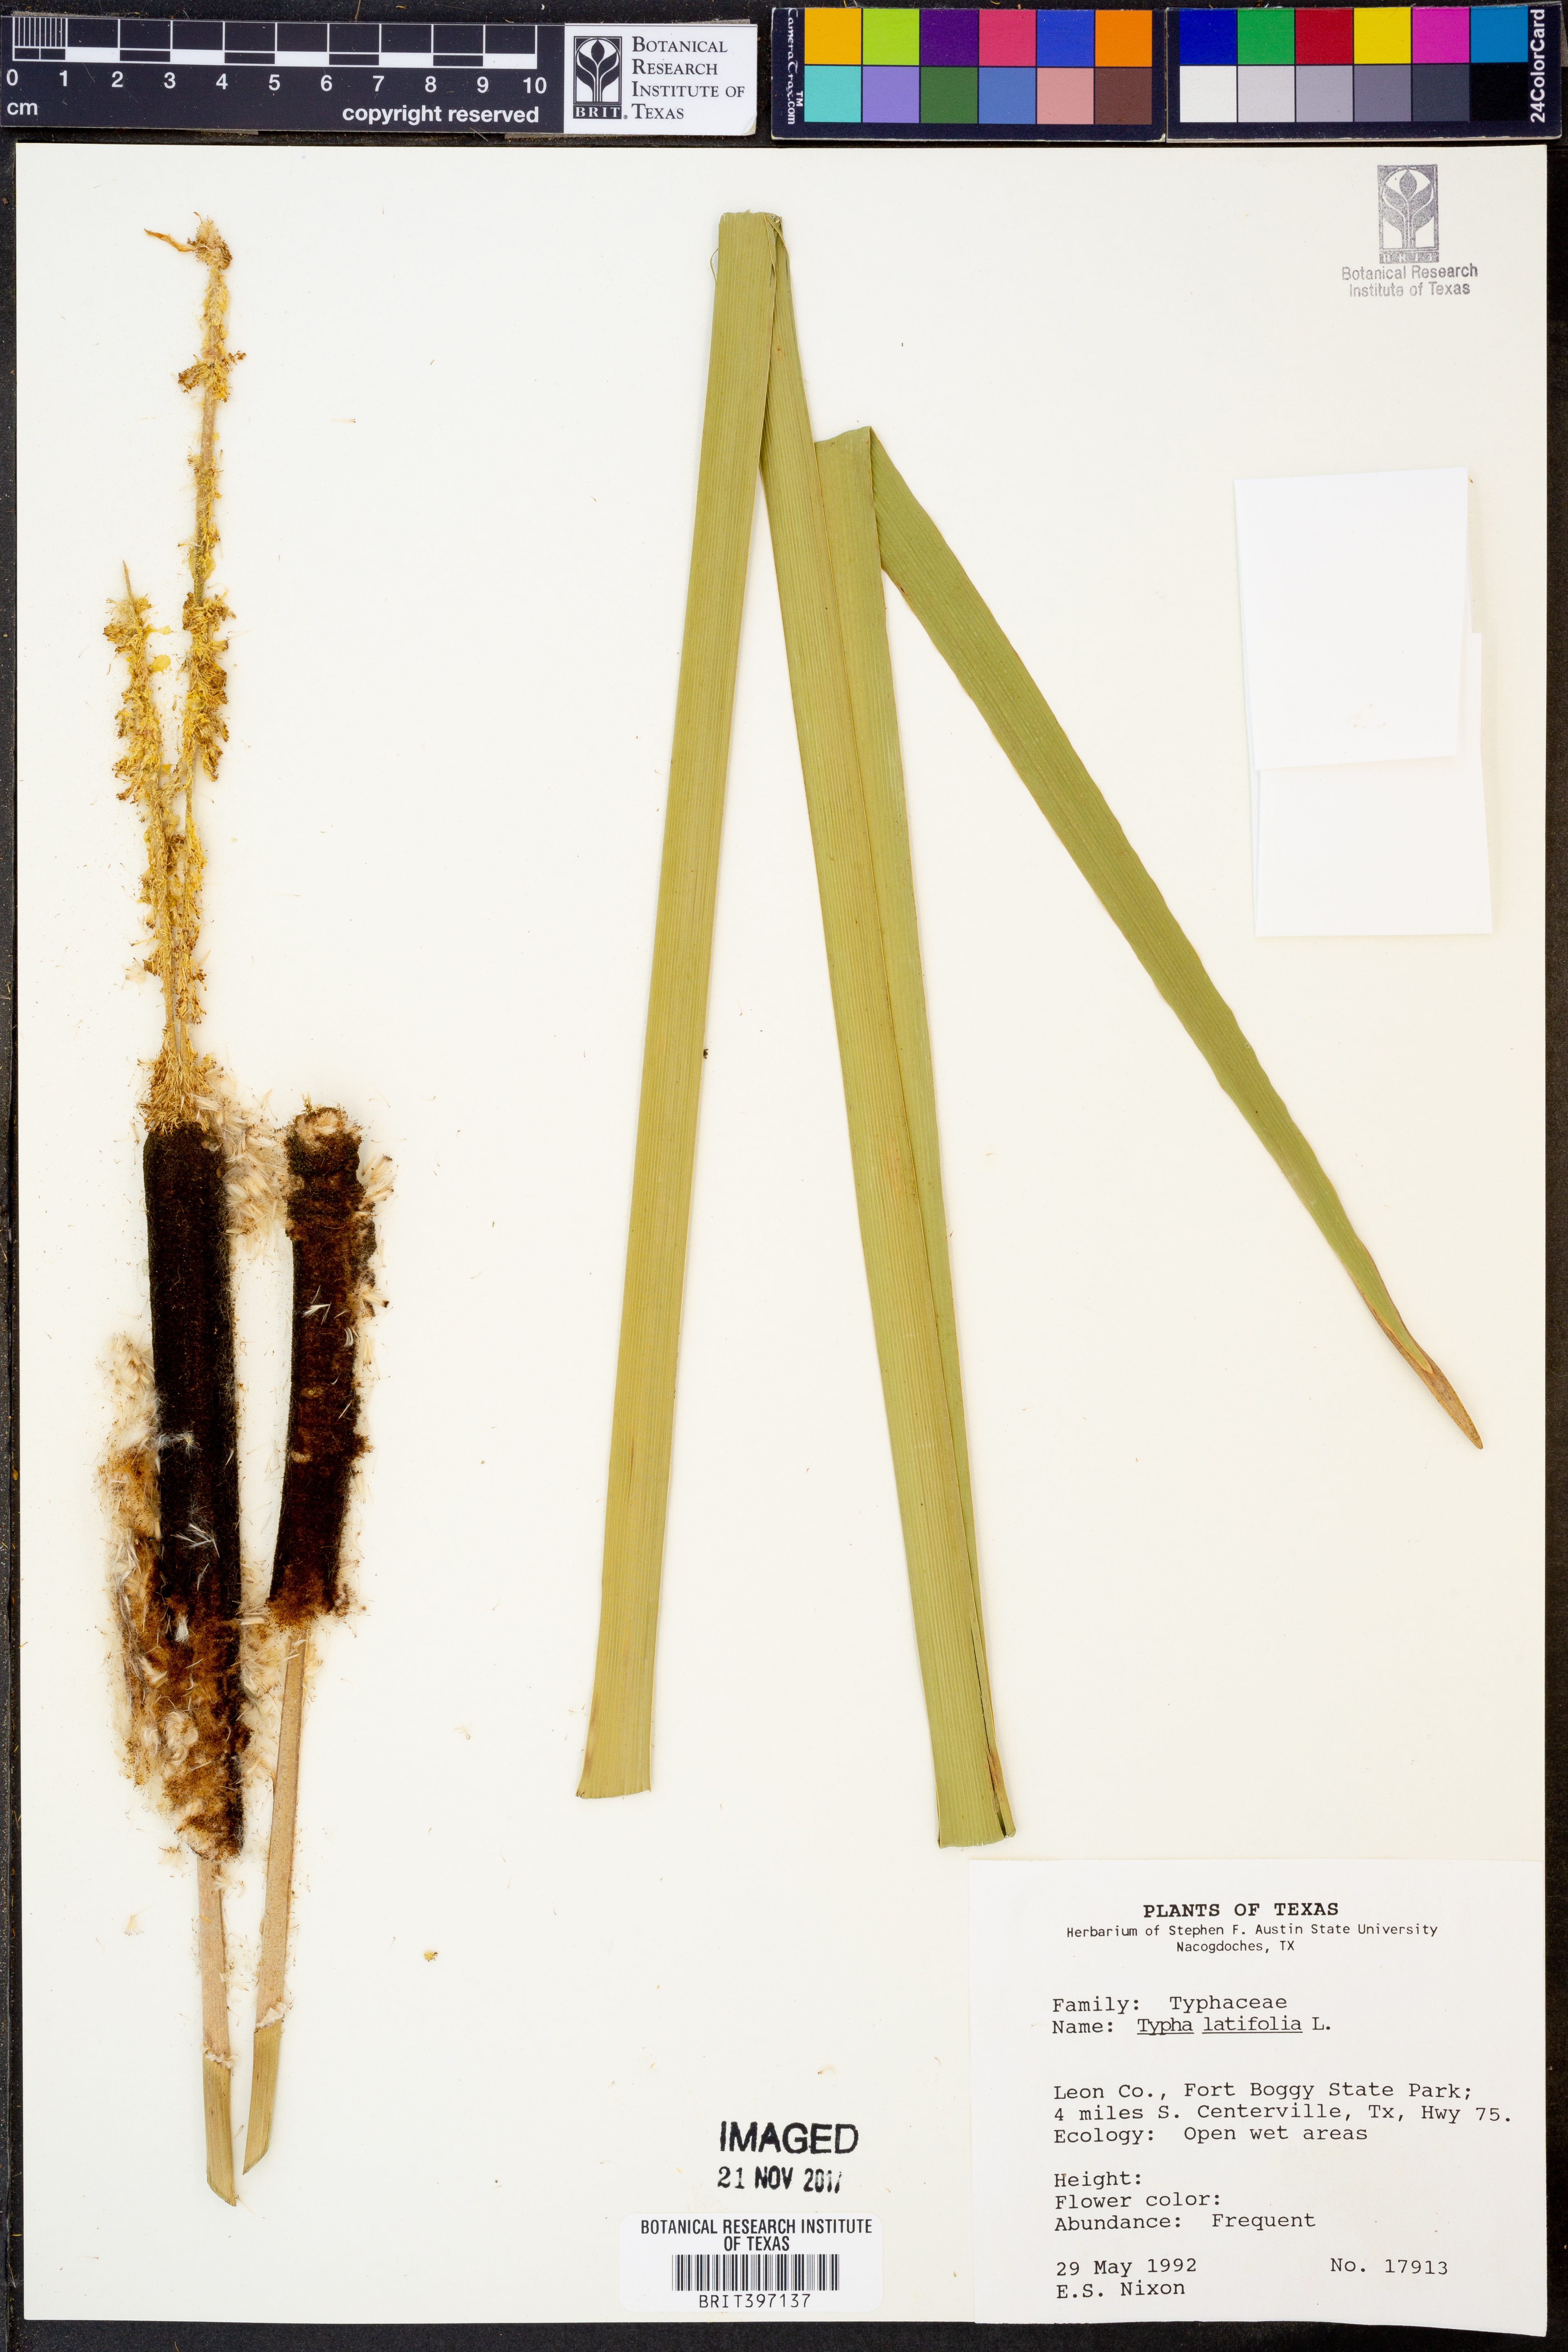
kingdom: Plantae
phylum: Tracheophyta
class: Liliopsida
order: Poales
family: Typhaceae
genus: Typha
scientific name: Typha latifolia
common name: Broadleaf cattail
